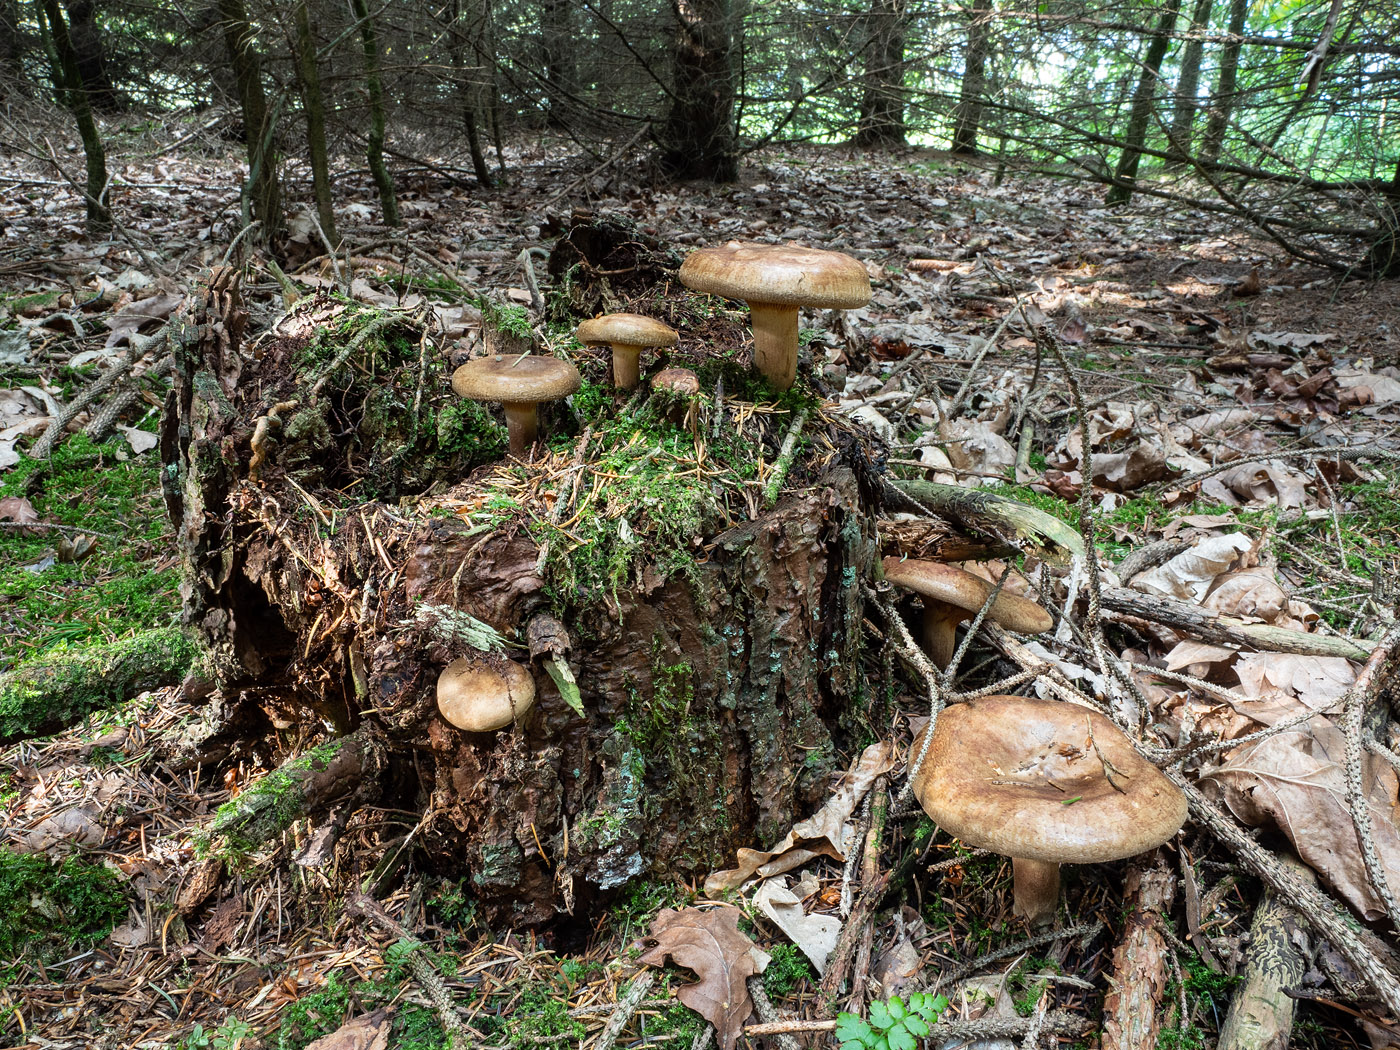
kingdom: Fungi
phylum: Basidiomycota
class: Agaricomycetes
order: Boletales
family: Paxillaceae
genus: Paxillus
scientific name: Paxillus involutus
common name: almindelig netbladhat
